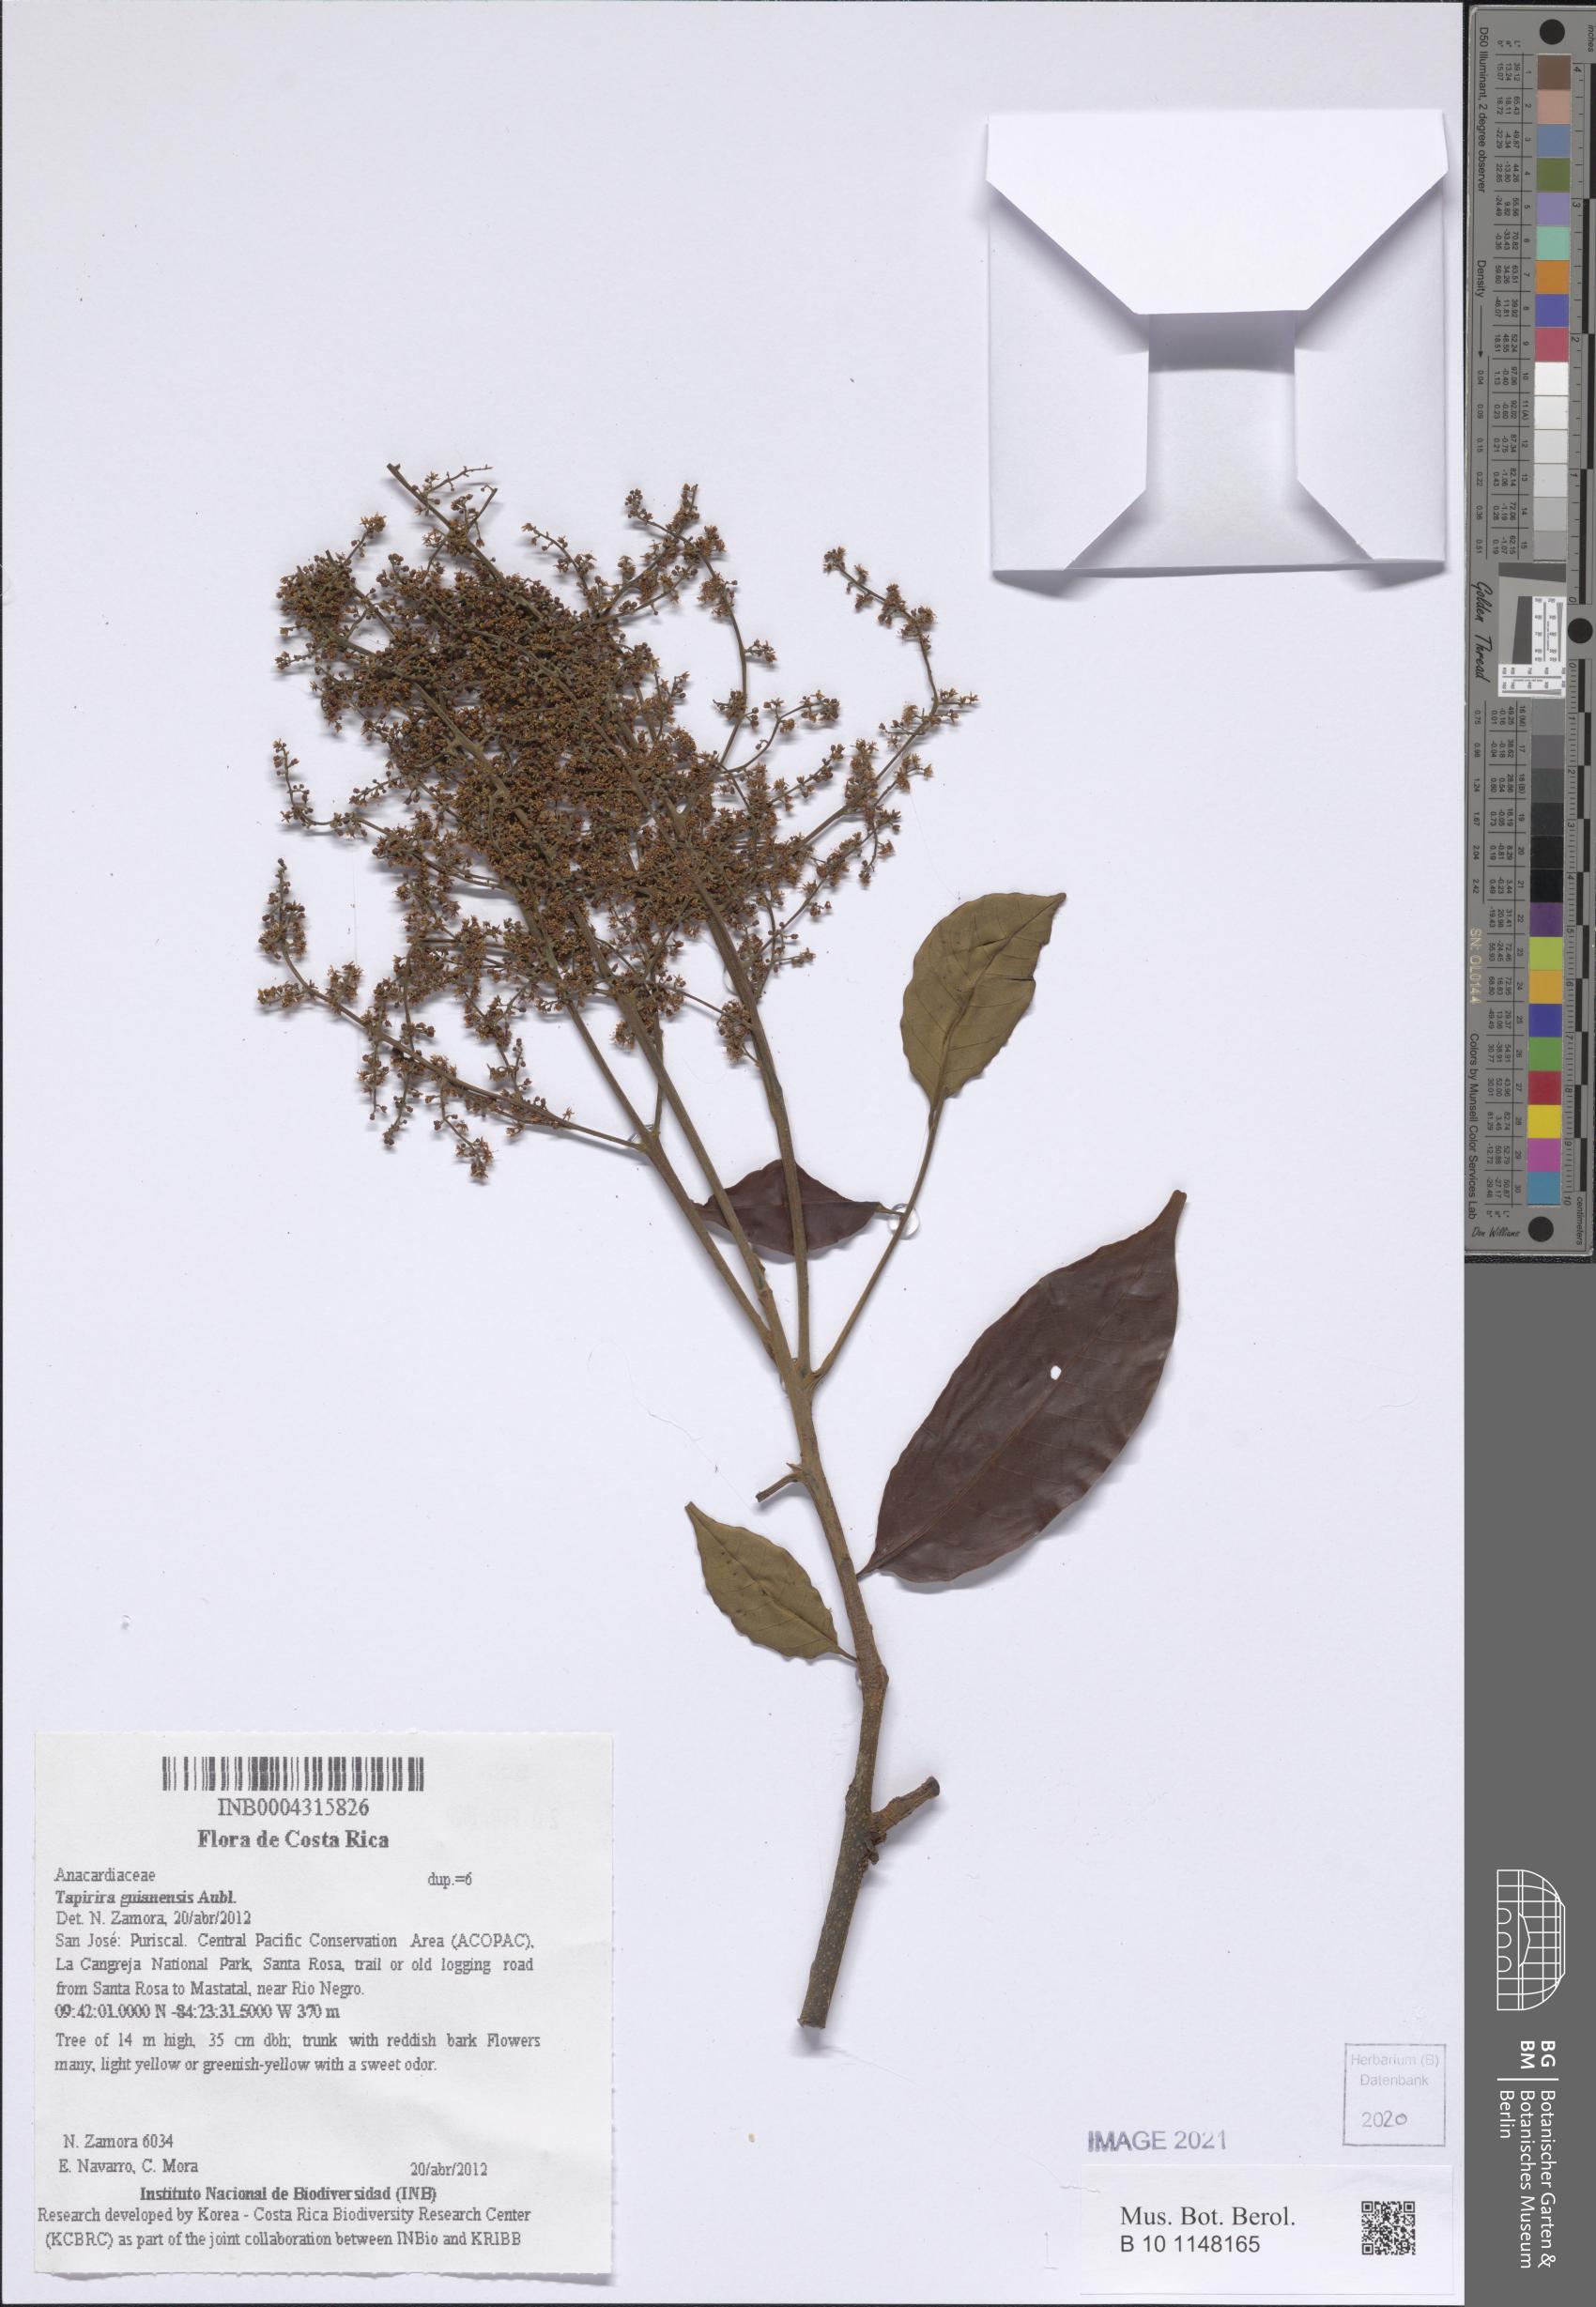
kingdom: Plantae
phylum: Tracheophyta
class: Magnoliopsida
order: Sapindales
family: Anacardiaceae
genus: Tapirira
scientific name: Tapirira guianensis
